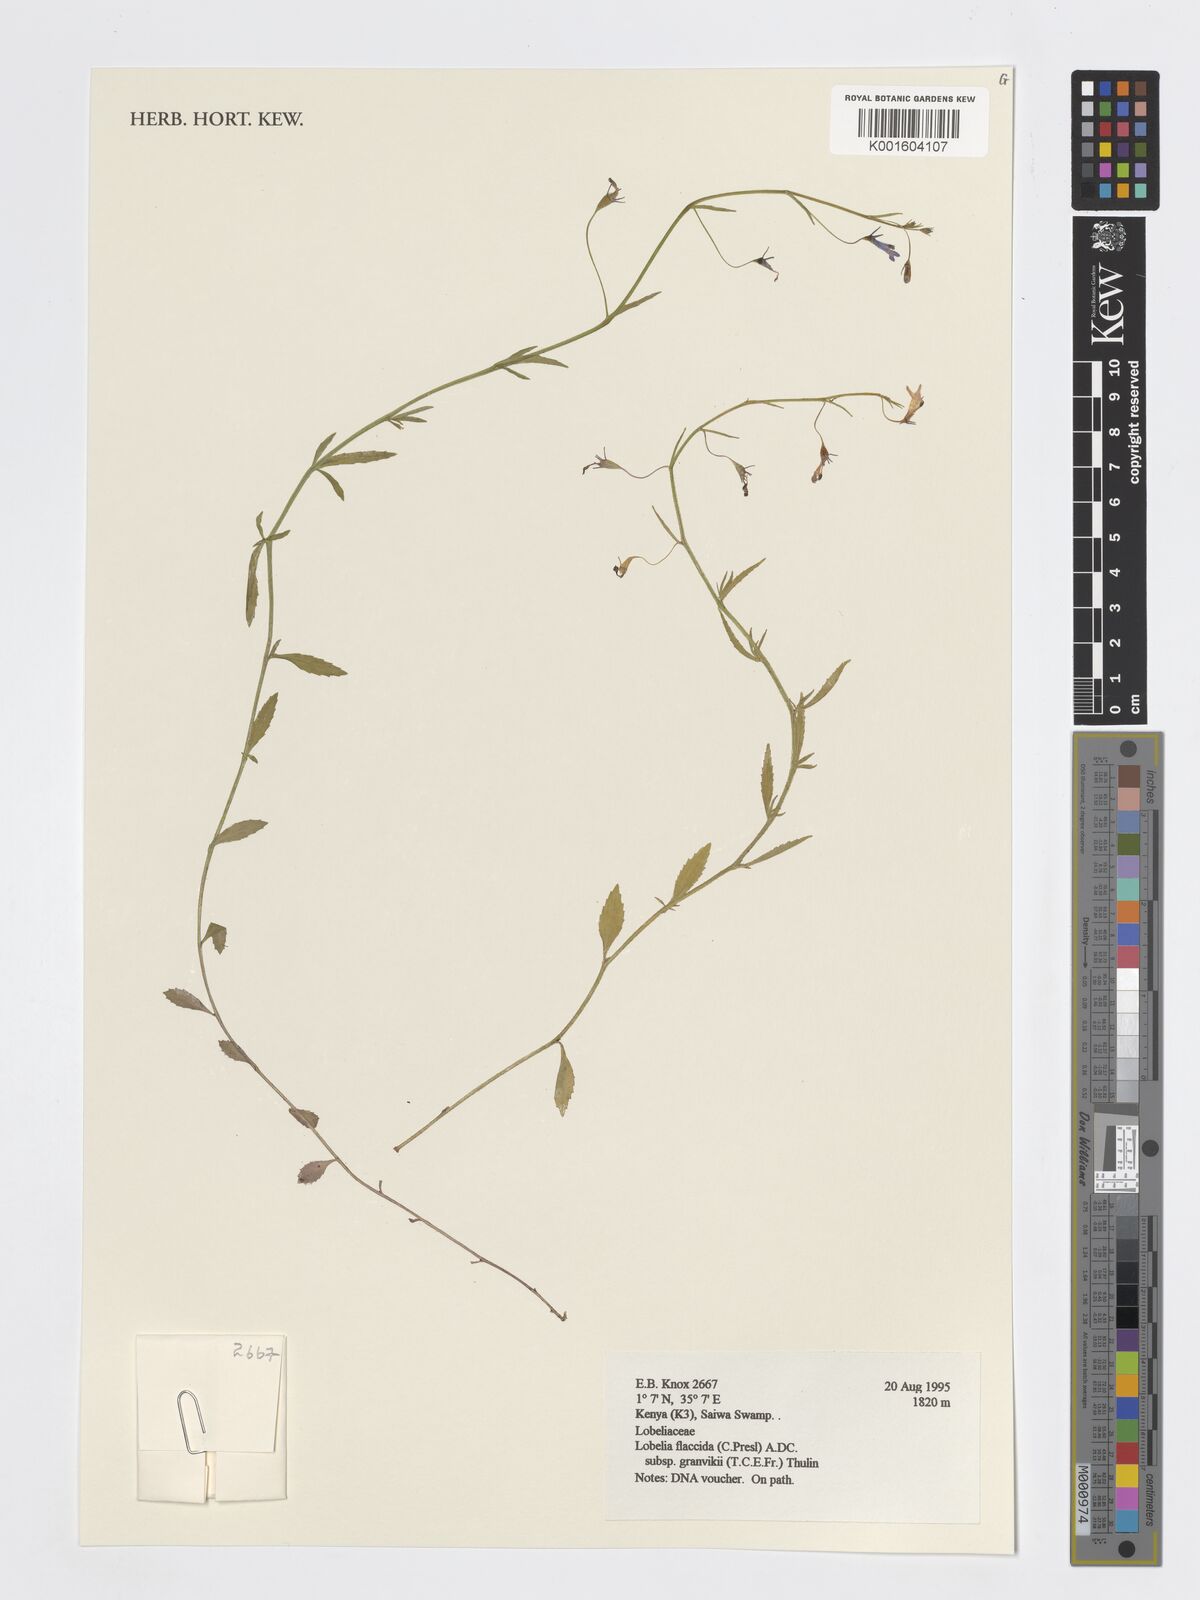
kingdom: Plantae
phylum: Tracheophyta
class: Magnoliopsida
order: Asterales
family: Campanulaceae
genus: Lobelia
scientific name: Lobelia flaccida
